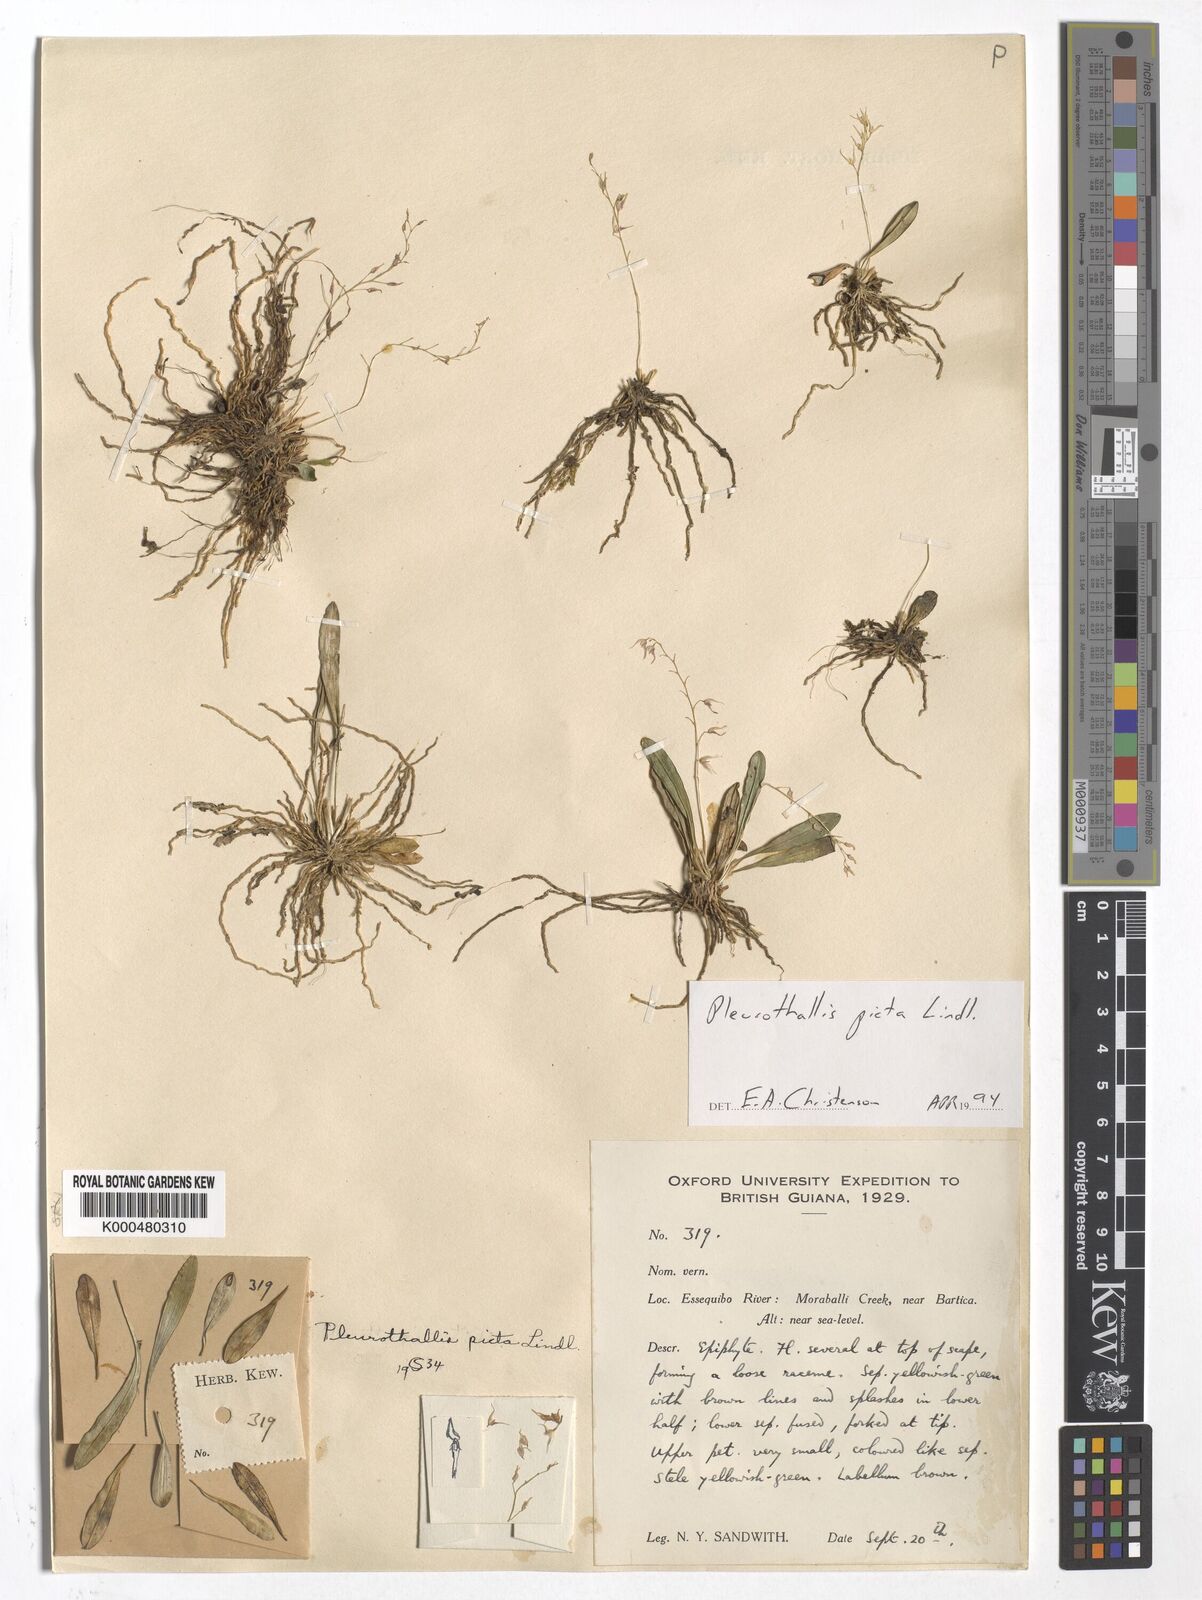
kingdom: Plantae
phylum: Tracheophyta
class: Liliopsida
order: Asparagales
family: Orchidaceae
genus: Specklinia
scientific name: Specklinia picta
